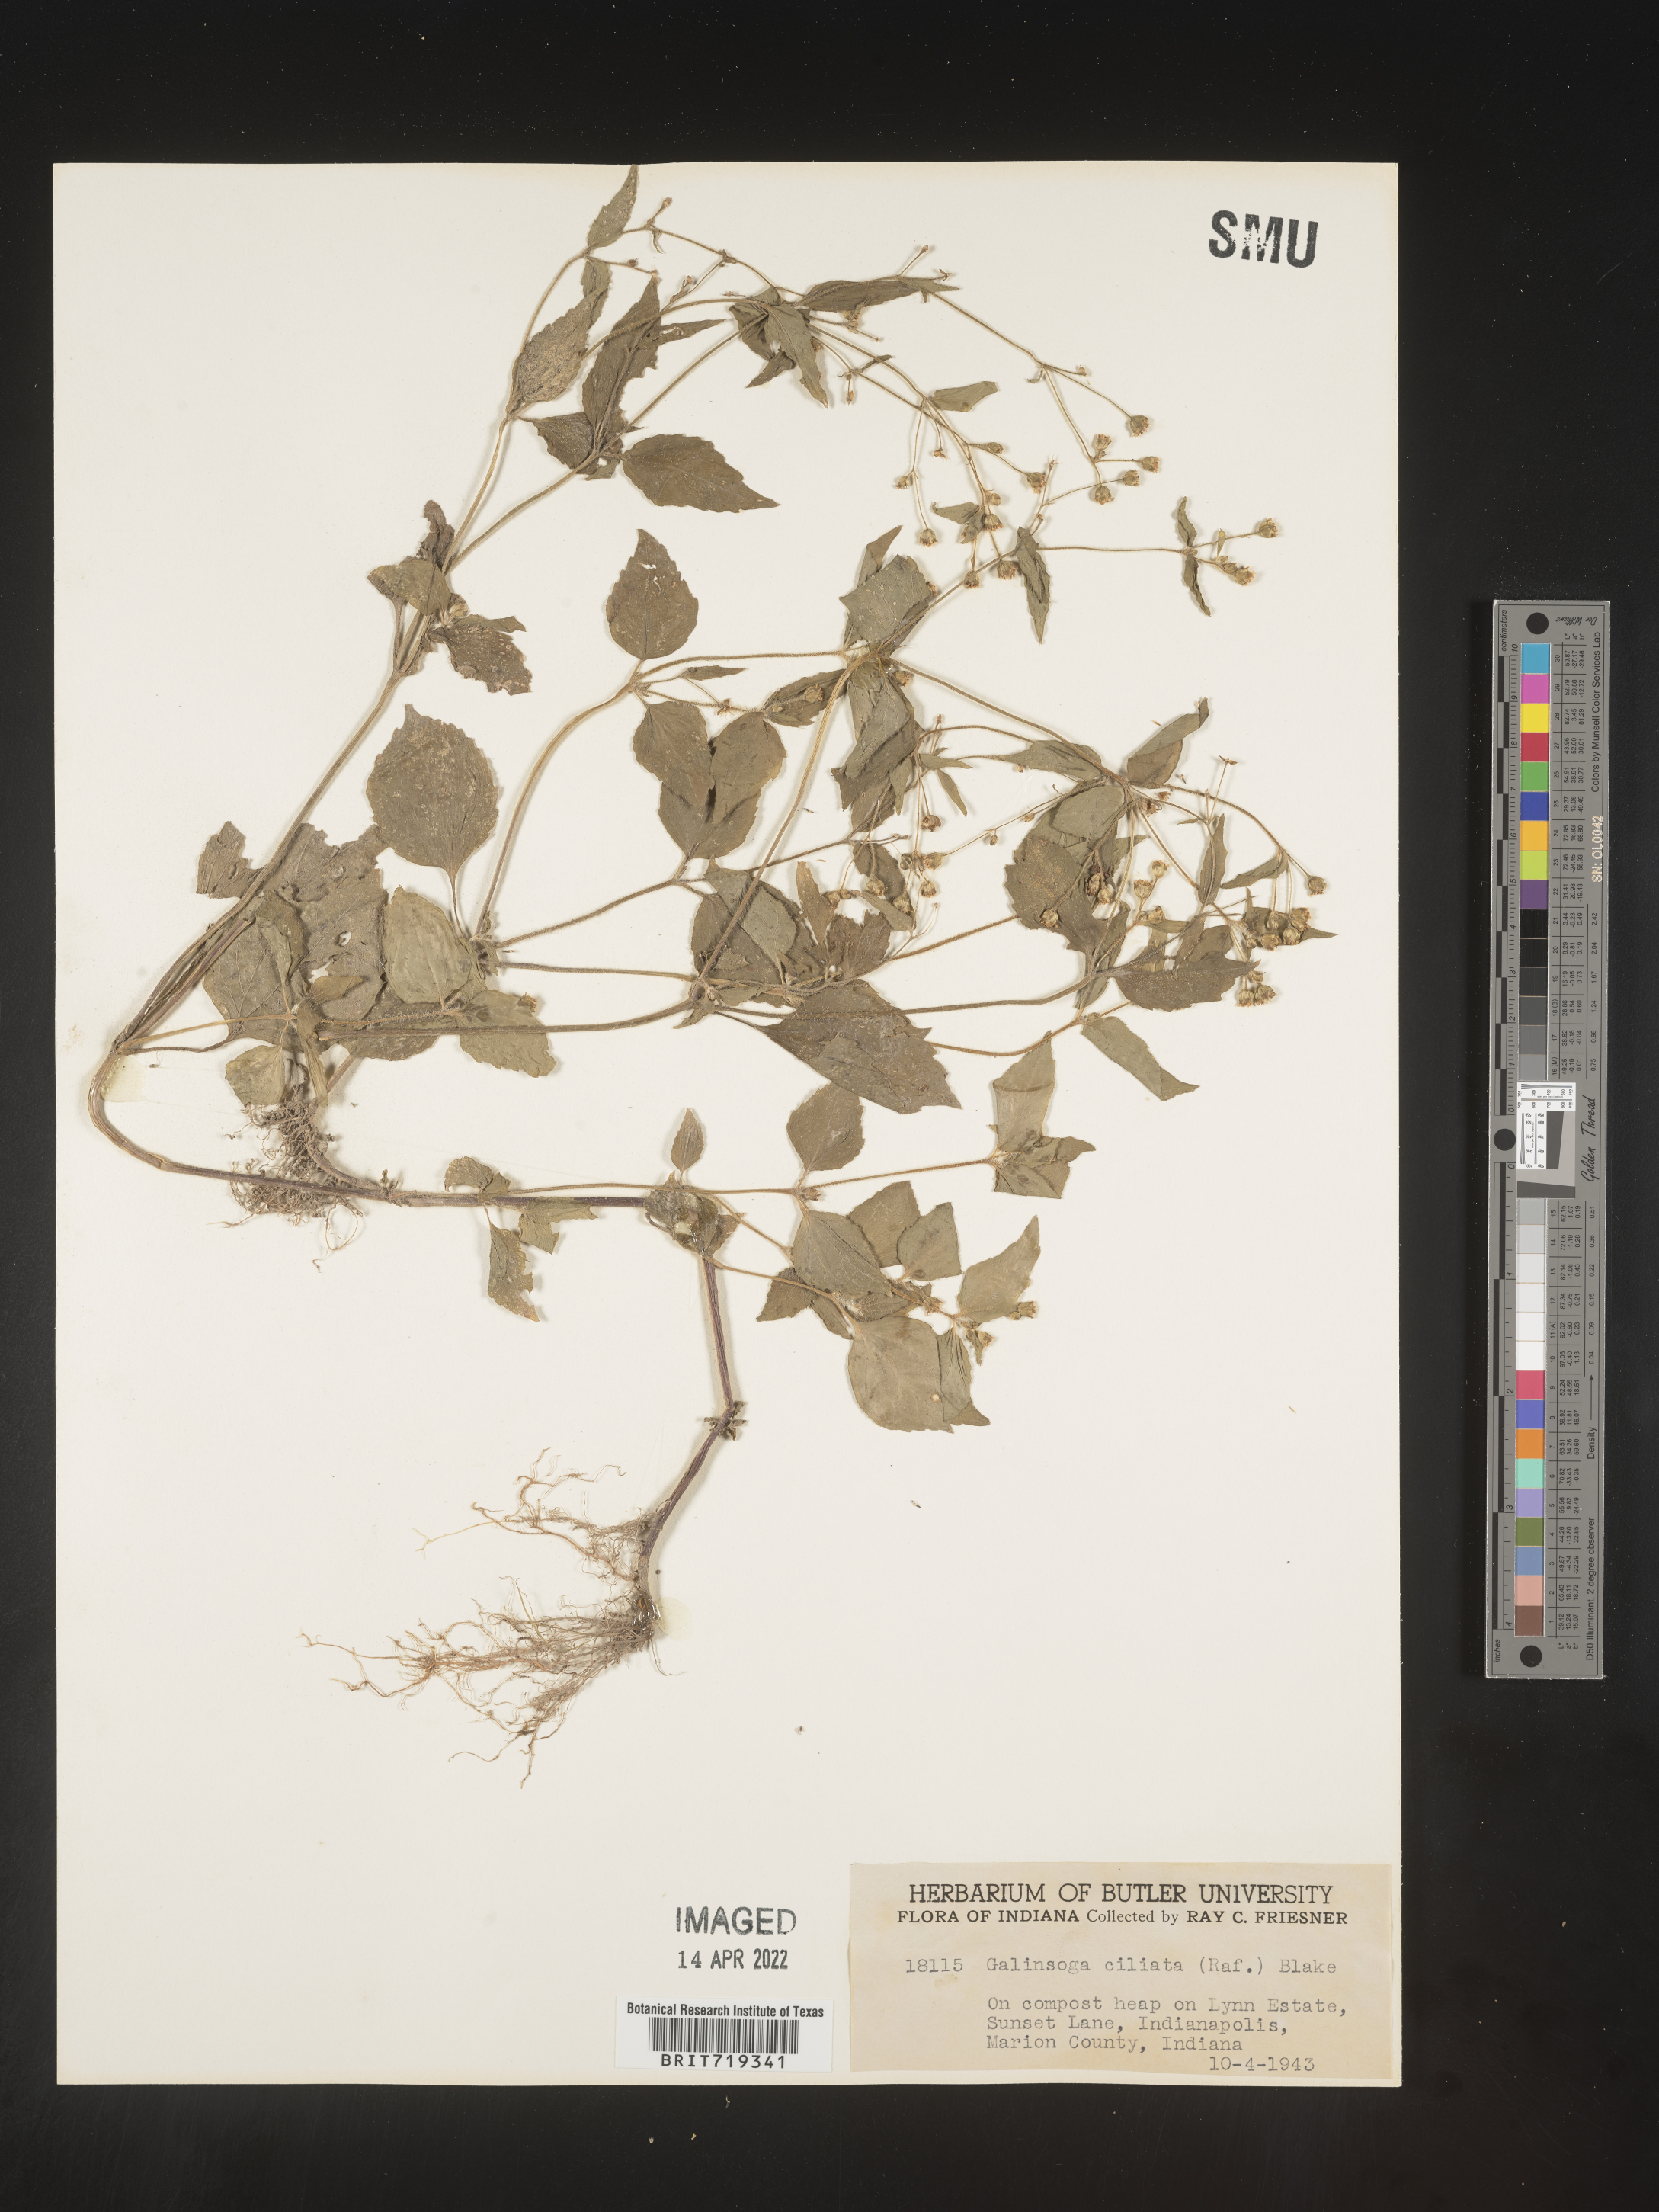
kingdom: Plantae
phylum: Tracheophyta
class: Magnoliopsida
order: Asterales
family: Asteraceae
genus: Galinsoga
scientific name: Galinsoga quadriradiata
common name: Shaggy soldier
